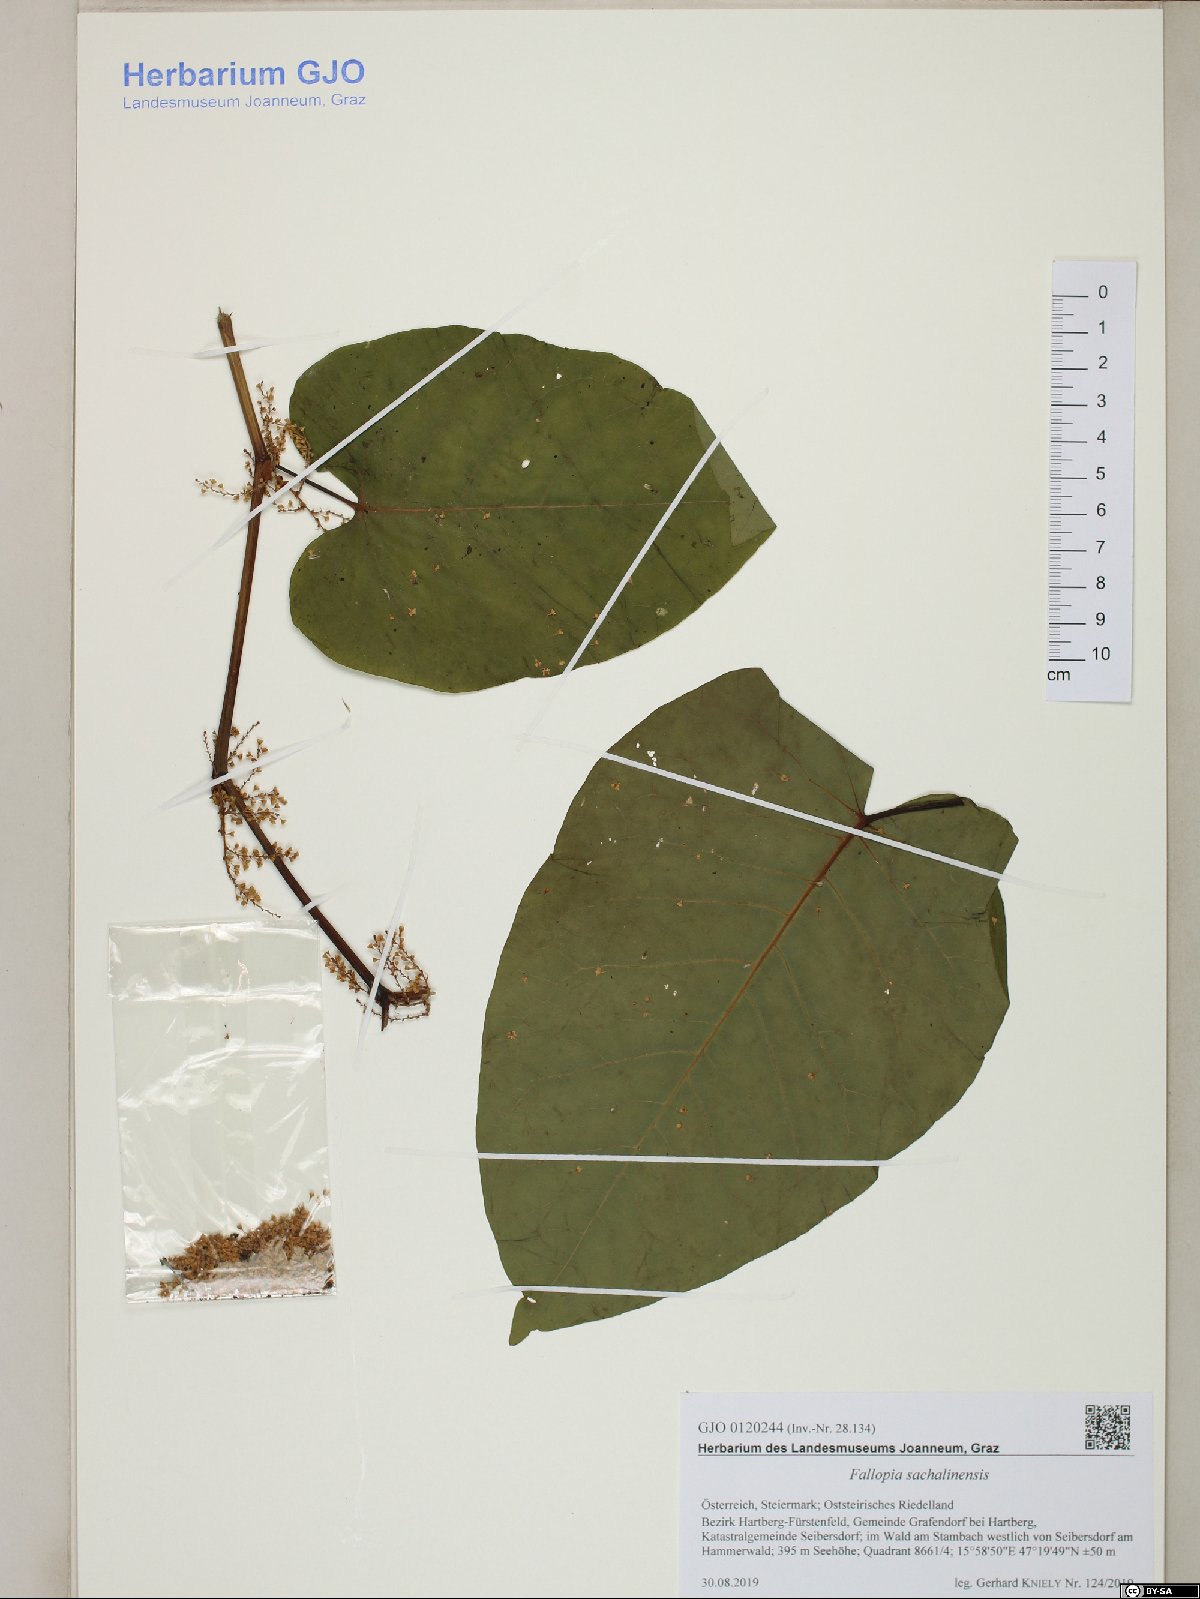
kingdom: Plantae
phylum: Tracheophyta
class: Magnoliopsida
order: Caryophyllales
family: Polygonaceae
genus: Reynoutria
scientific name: Reynoutria sachalinensis
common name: Giant knotweed
